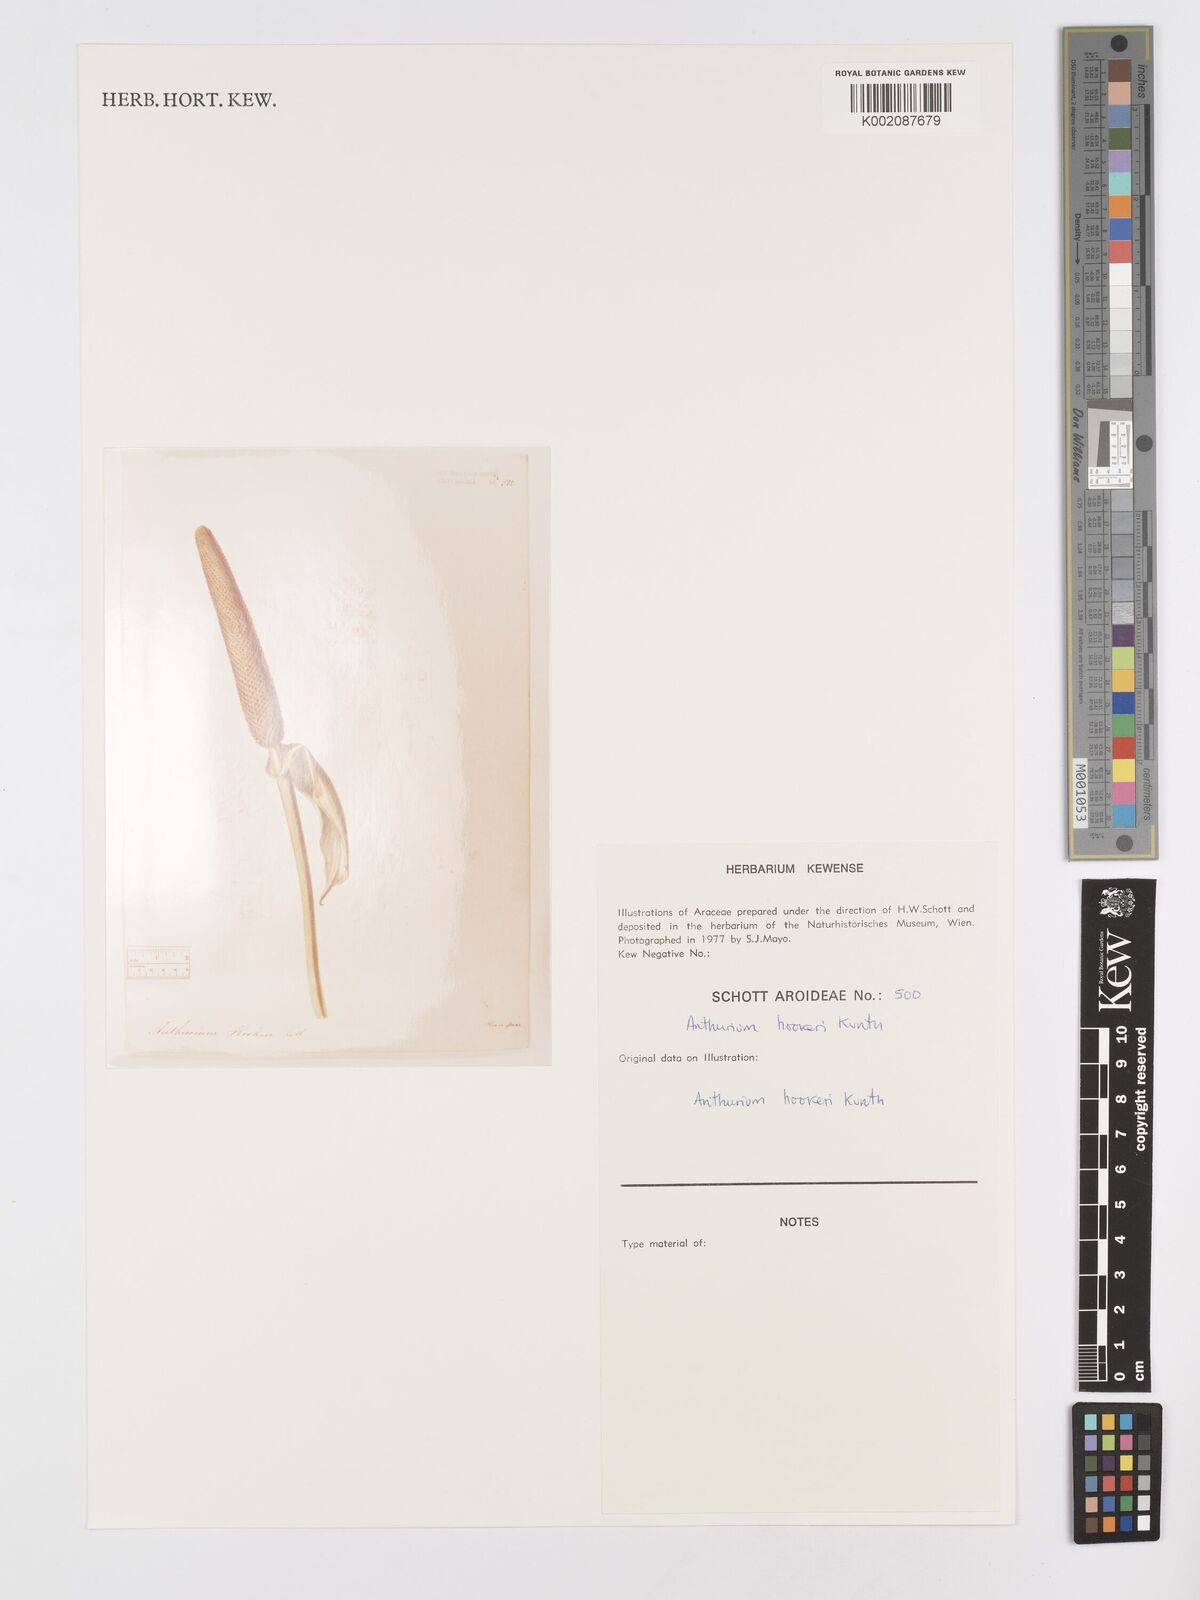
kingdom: Plantae
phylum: Tracheophyta
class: Liliopsida
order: Alismatales
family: Araceae
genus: Anthurium
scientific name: Anthurium hookeri
